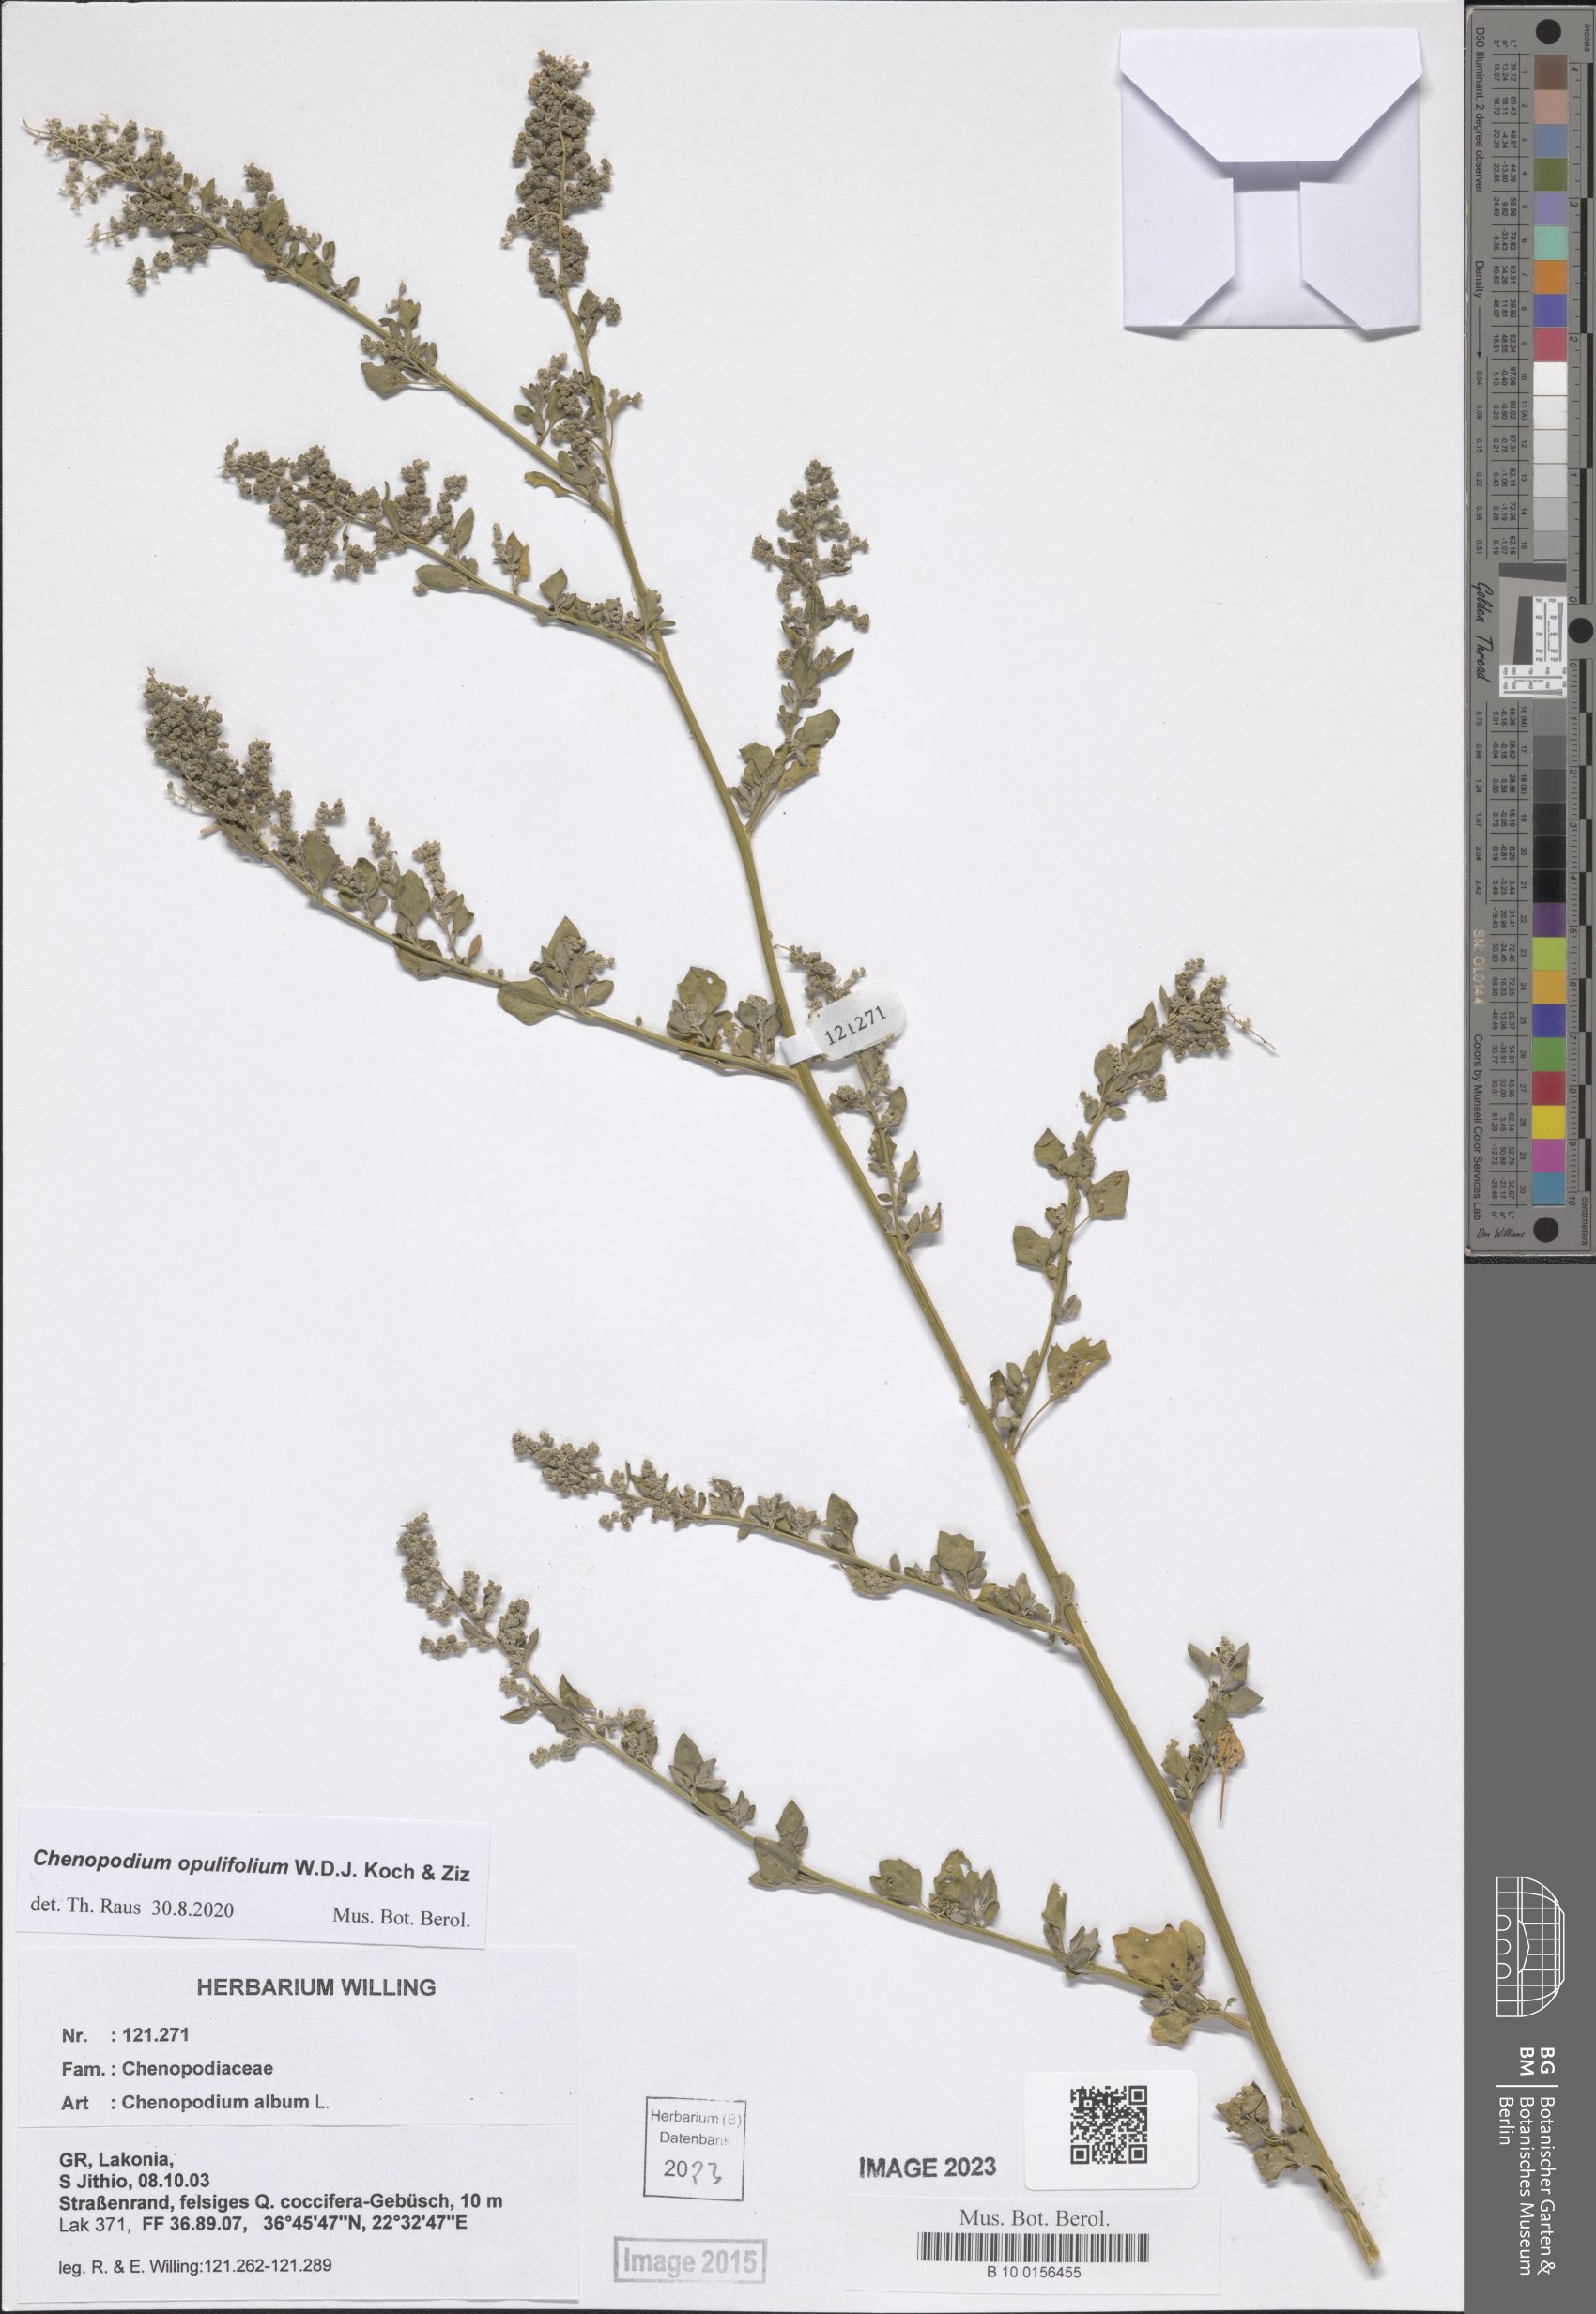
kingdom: Plantae
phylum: Tracheophyta
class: Magnoliopsida
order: Caryophyllales
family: Amaranthaceae
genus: Chenopodium
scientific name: Chenopodium opulifolium
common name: Grey goosefoot
